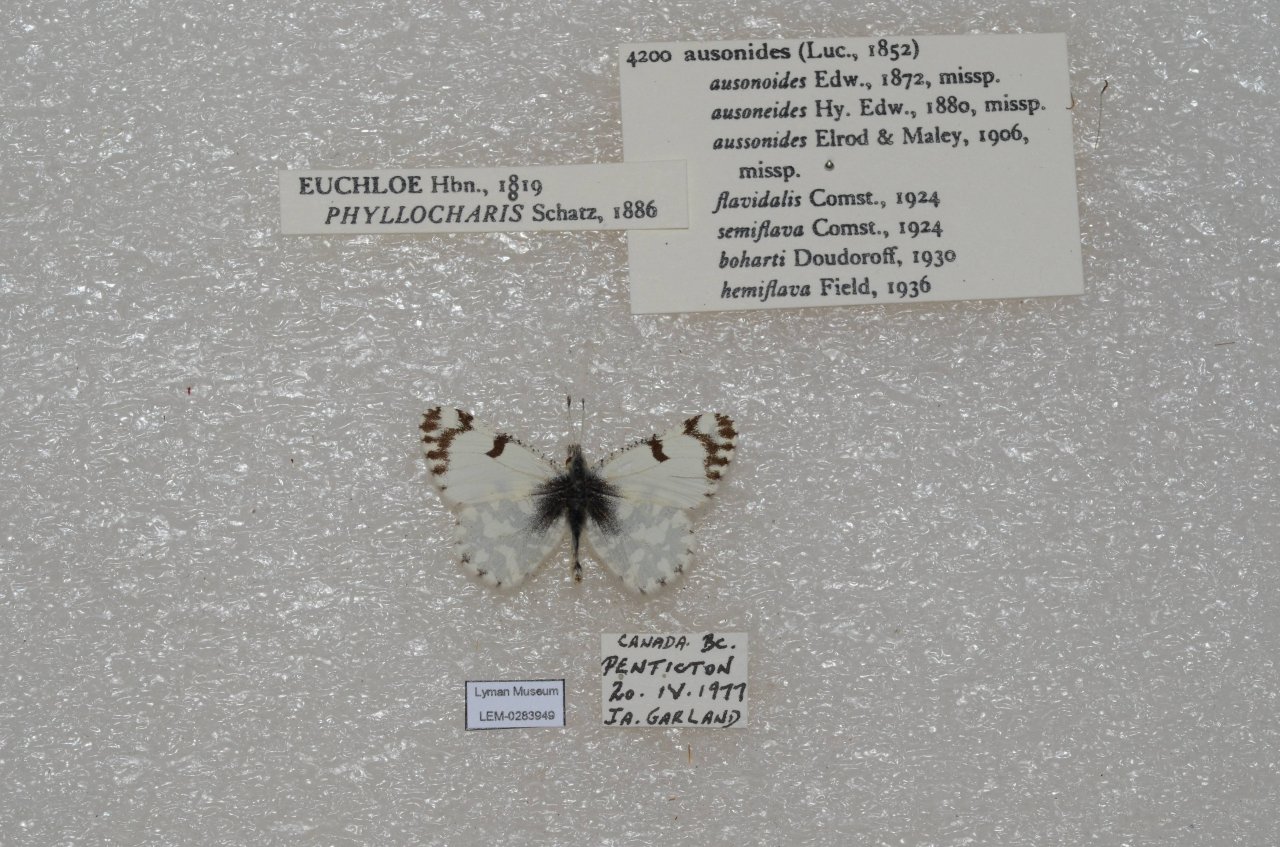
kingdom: Animalia
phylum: Arthropoda
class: Insecta
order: Lepidoptera
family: Pieridae
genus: Euchloe
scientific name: Euchloe ausonides
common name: Large Marble
